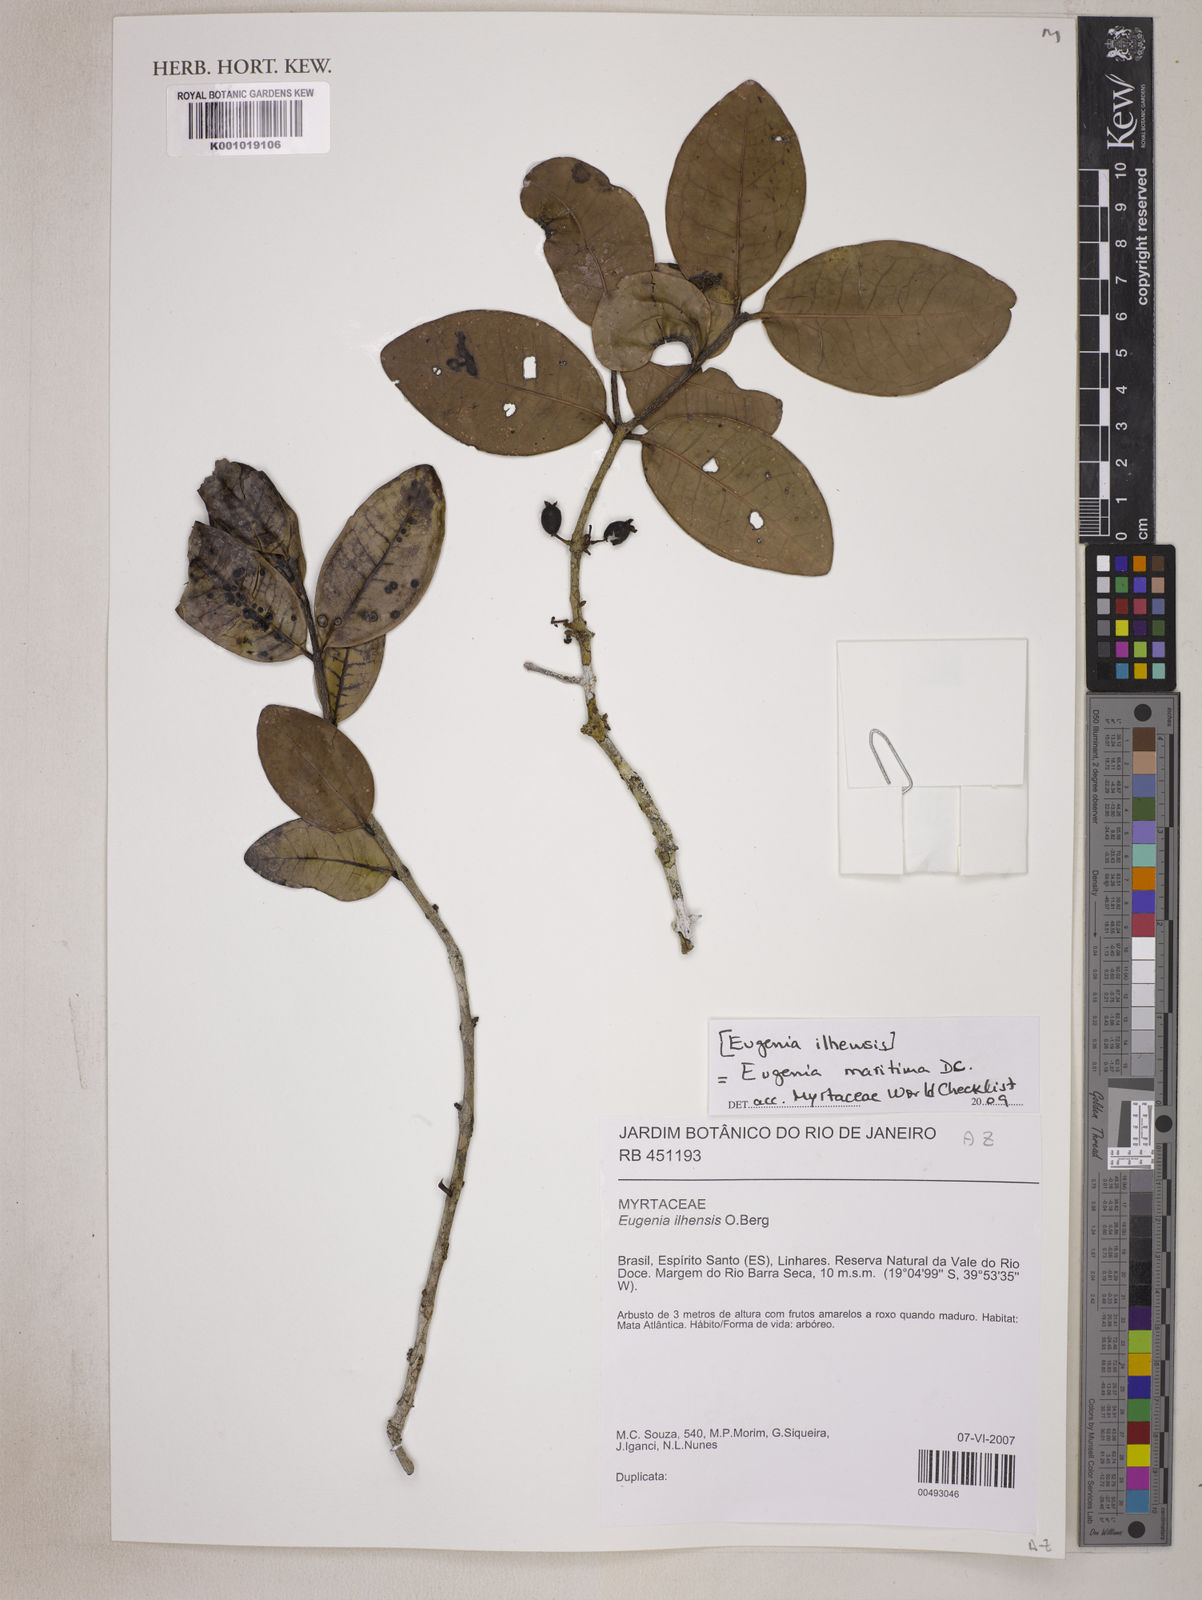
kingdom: Plantae
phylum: Tracheophyta
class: Magnoliopsida
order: Myrtales
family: Myrtaceae
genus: Eugenia
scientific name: Eugenia maritima
